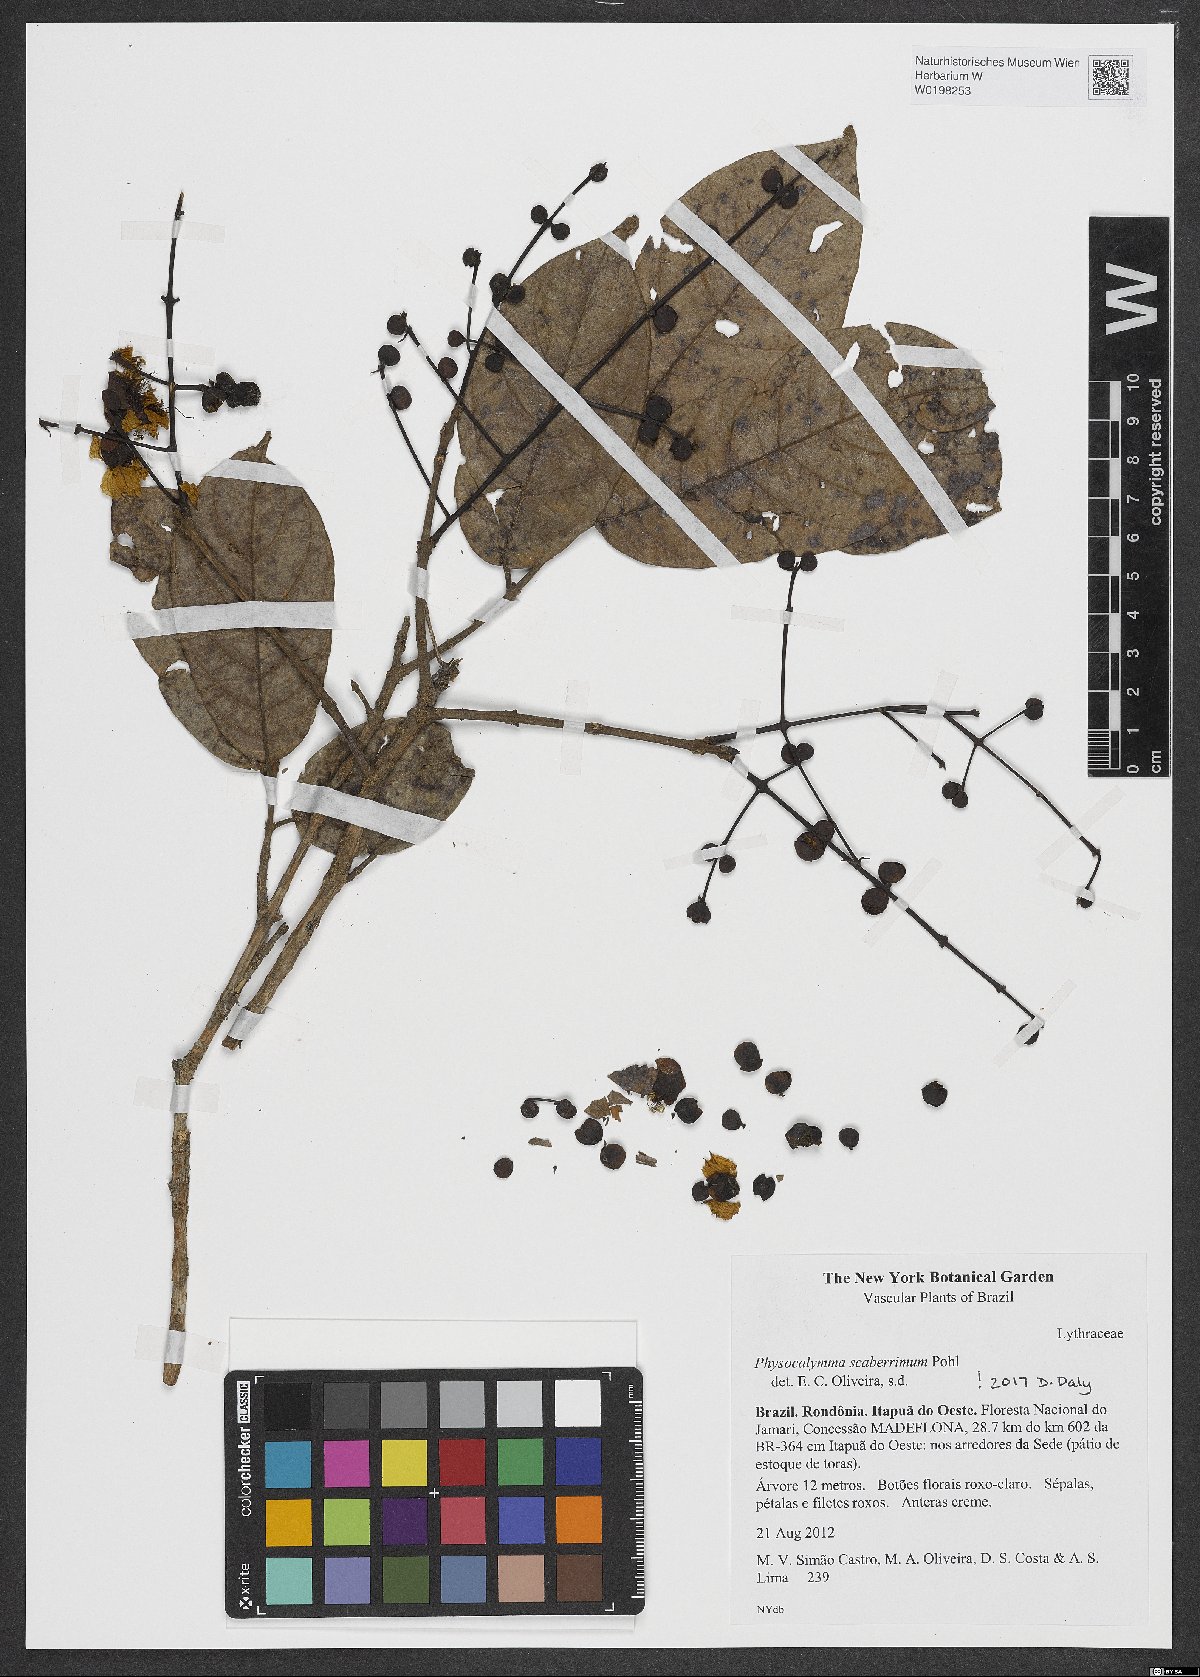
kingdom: Plantae
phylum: Tracheophyta
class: Magnoliopsida
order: Myrtales
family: Lythraceae
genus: Physocalymma
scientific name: Physocalymma scaberrimum
